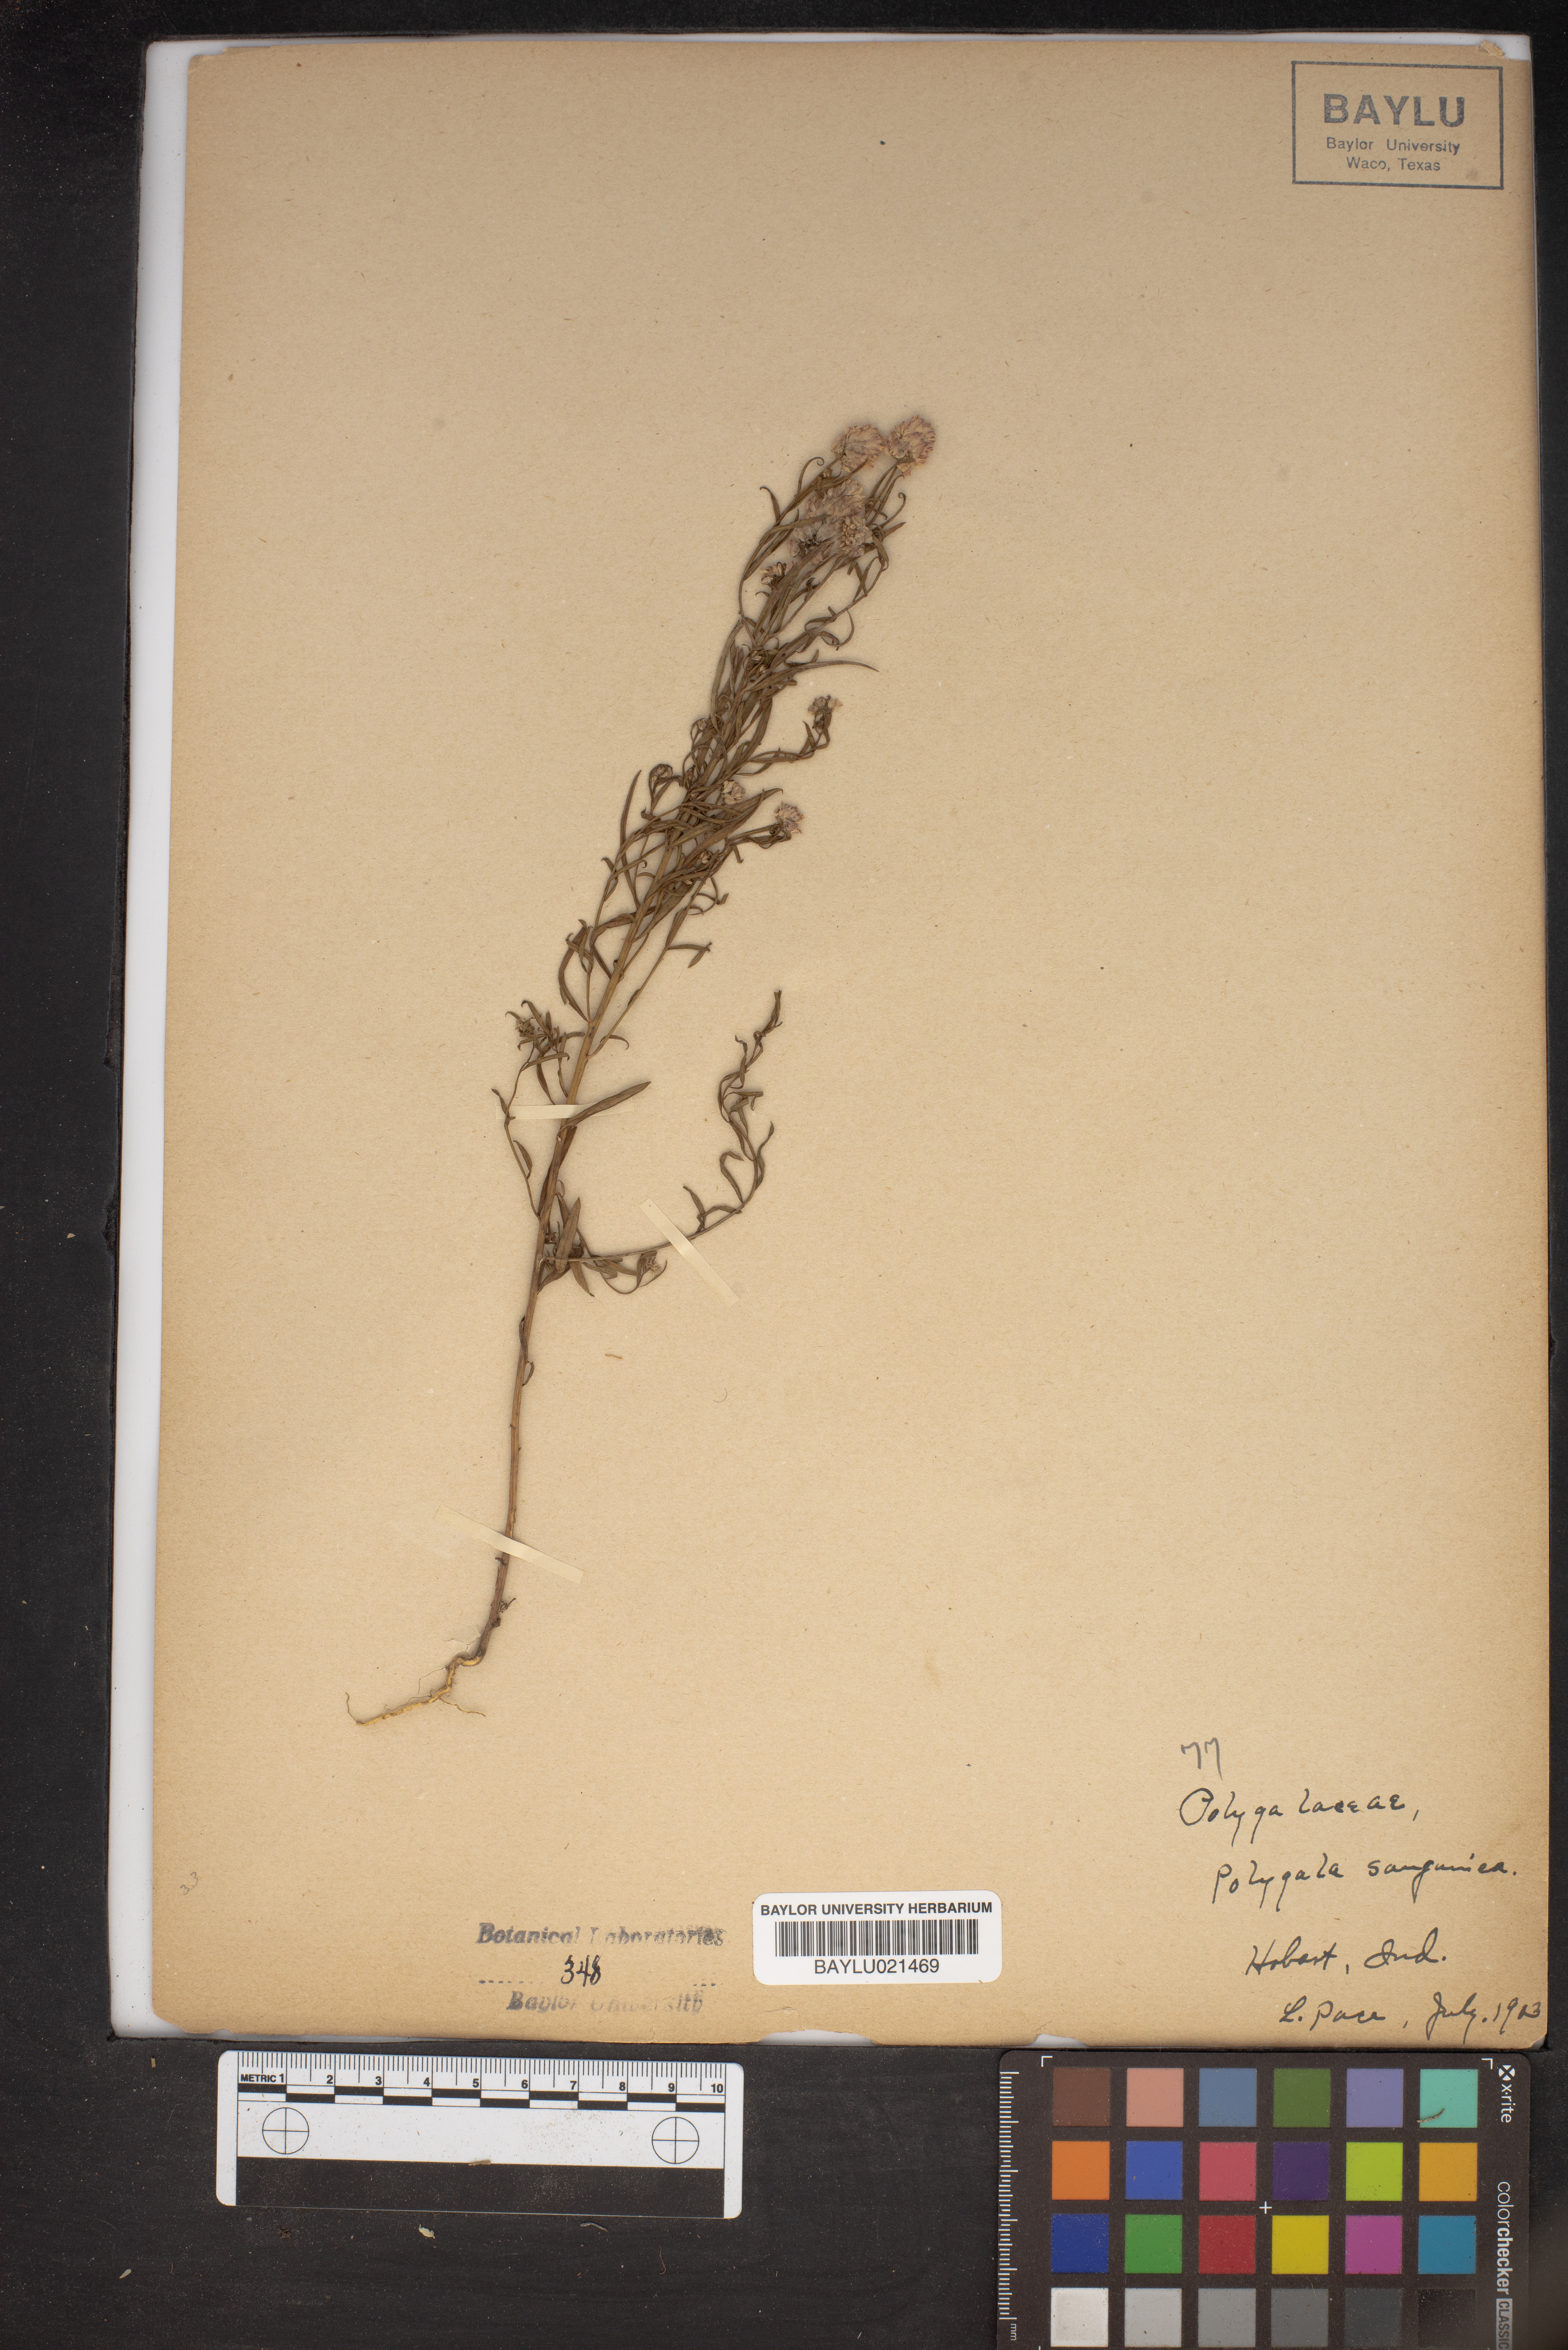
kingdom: Plantae
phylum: Tracheophyta
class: Magnoliopsida
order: Fabales
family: Polygalaceae
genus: Polygala
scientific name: Polygala sanguinea
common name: Blood milkwort
